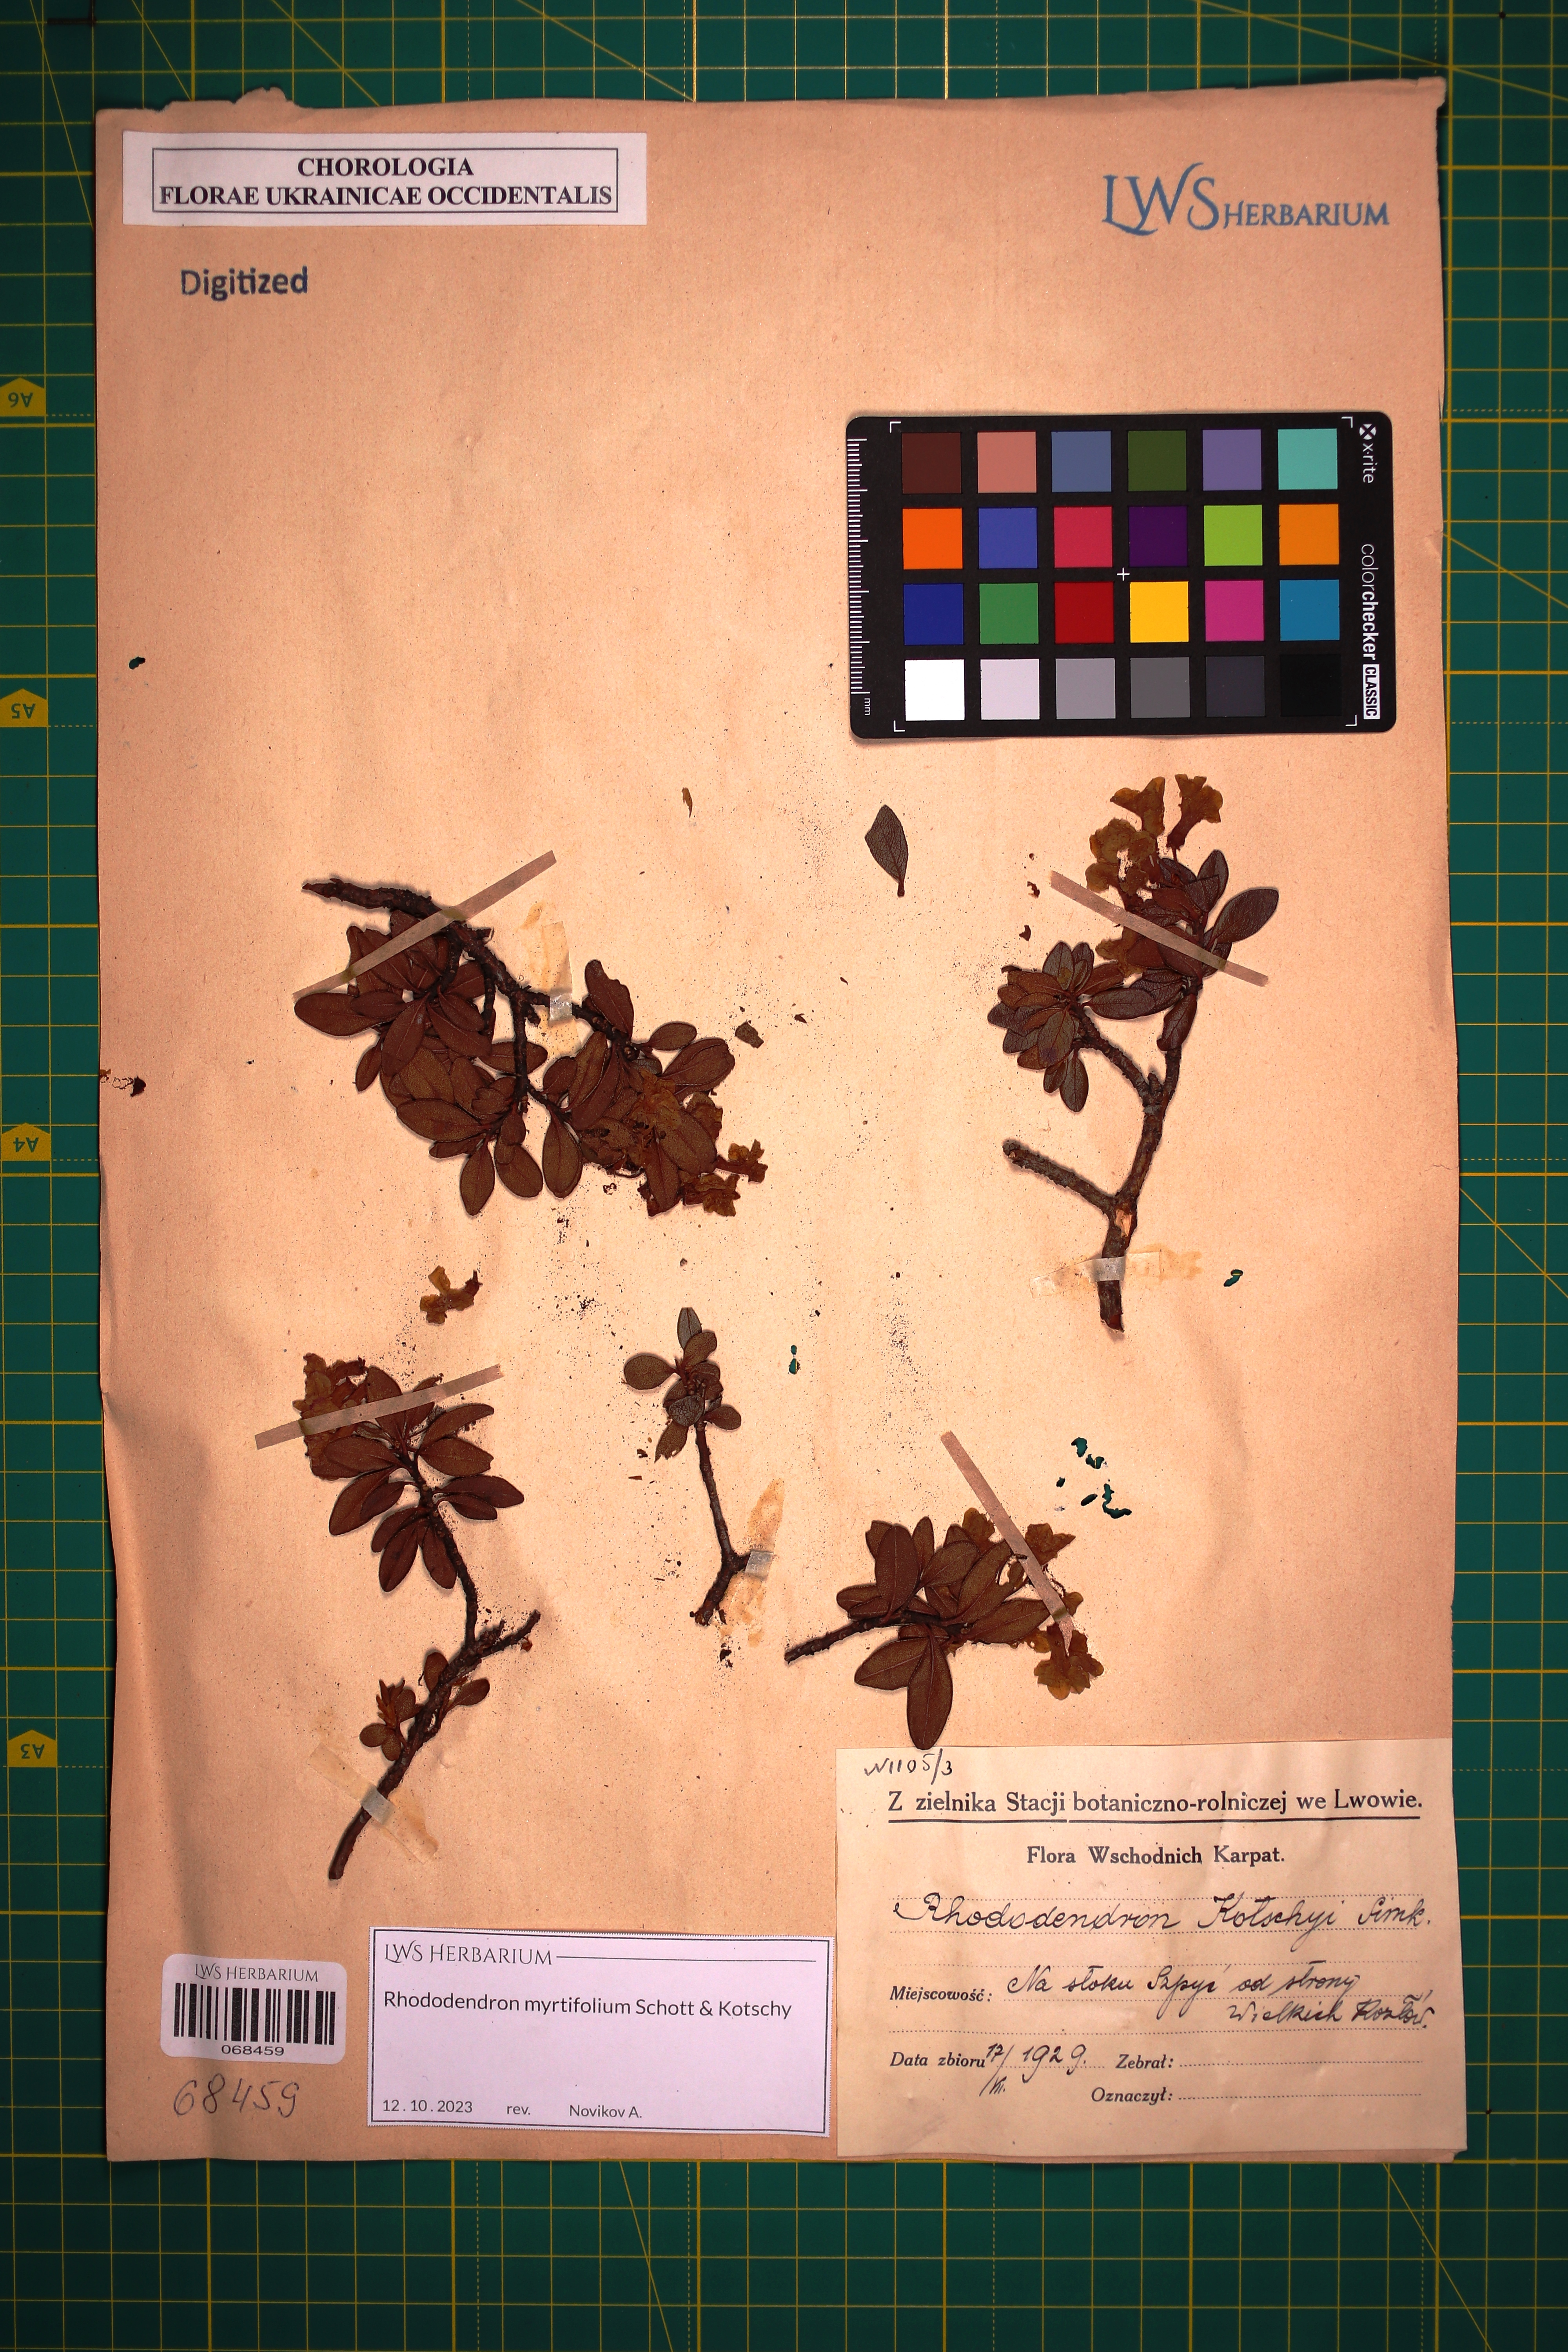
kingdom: Plantae
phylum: Tracheophyta
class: Magnoliopsida
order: Ericales
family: Ericaceae
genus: Rhododendron
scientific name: Rhododendron kotschyi
